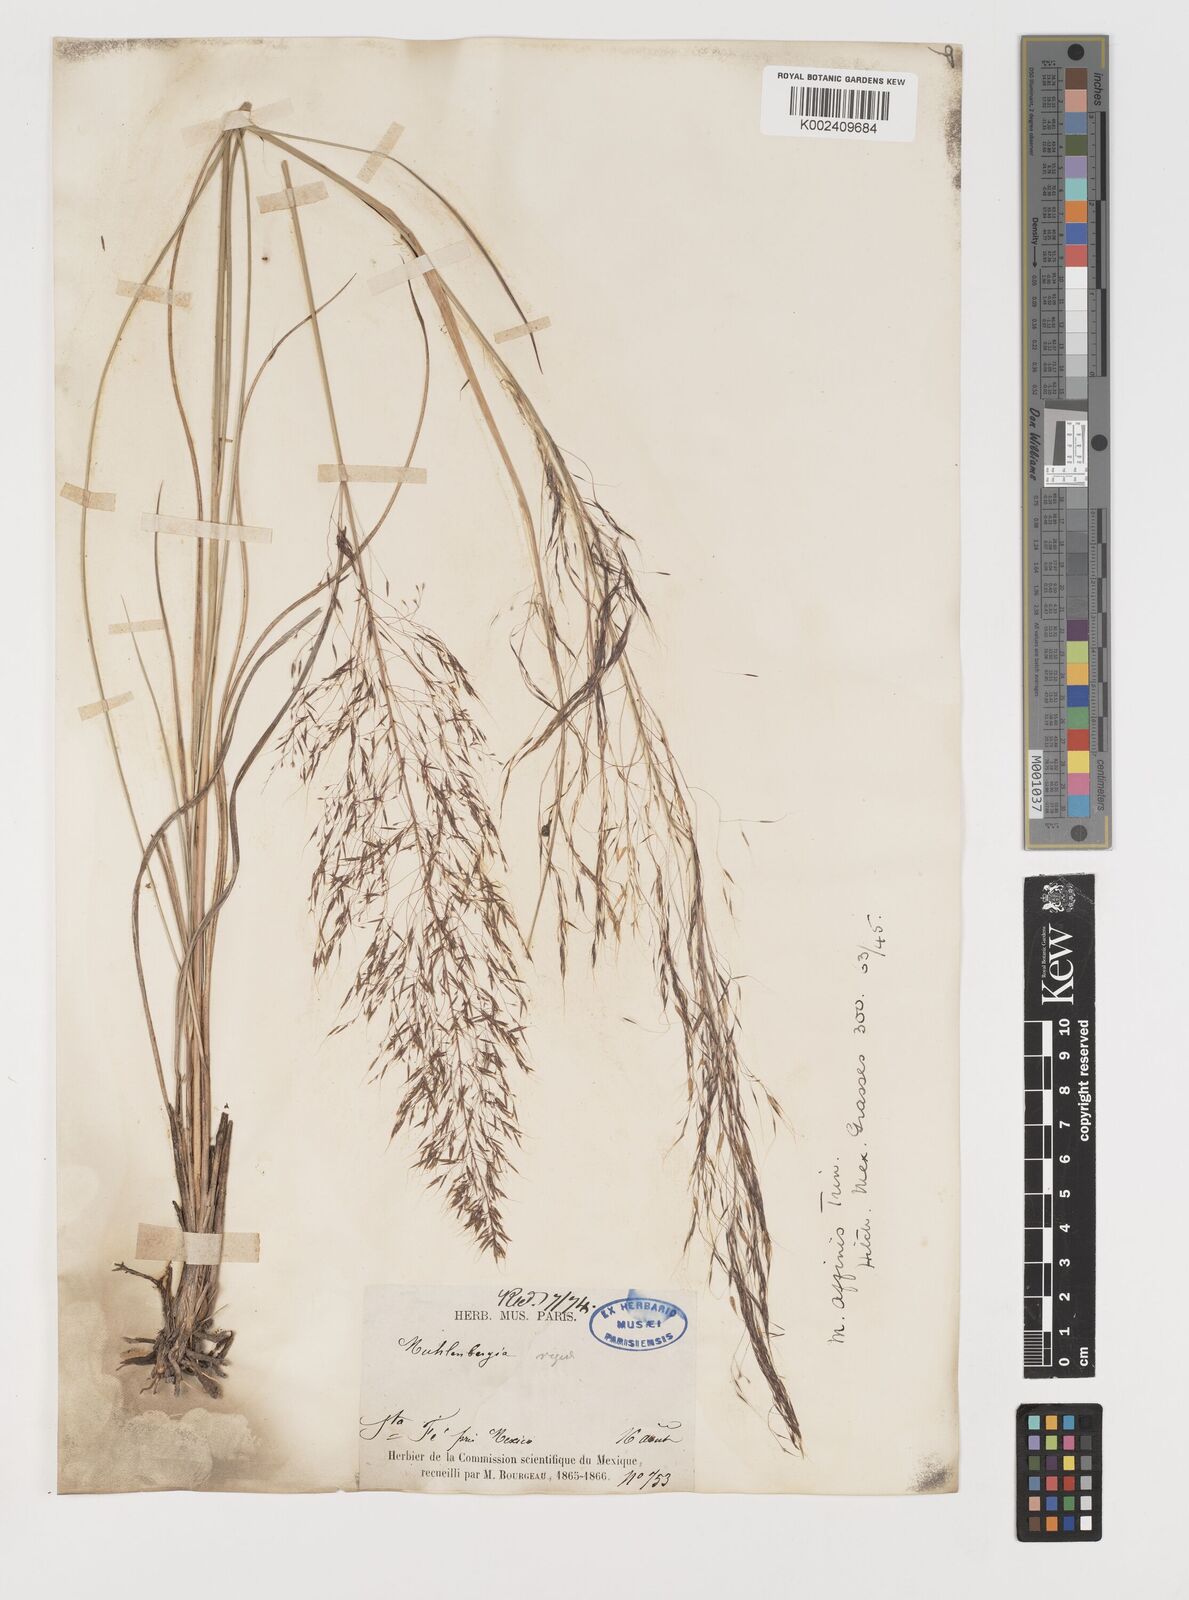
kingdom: Plantae
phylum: Tracheophyta
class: Liliopsida
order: Poales
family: Poaceae
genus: Muhlenbergia
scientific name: Muhlenbergia rigida
